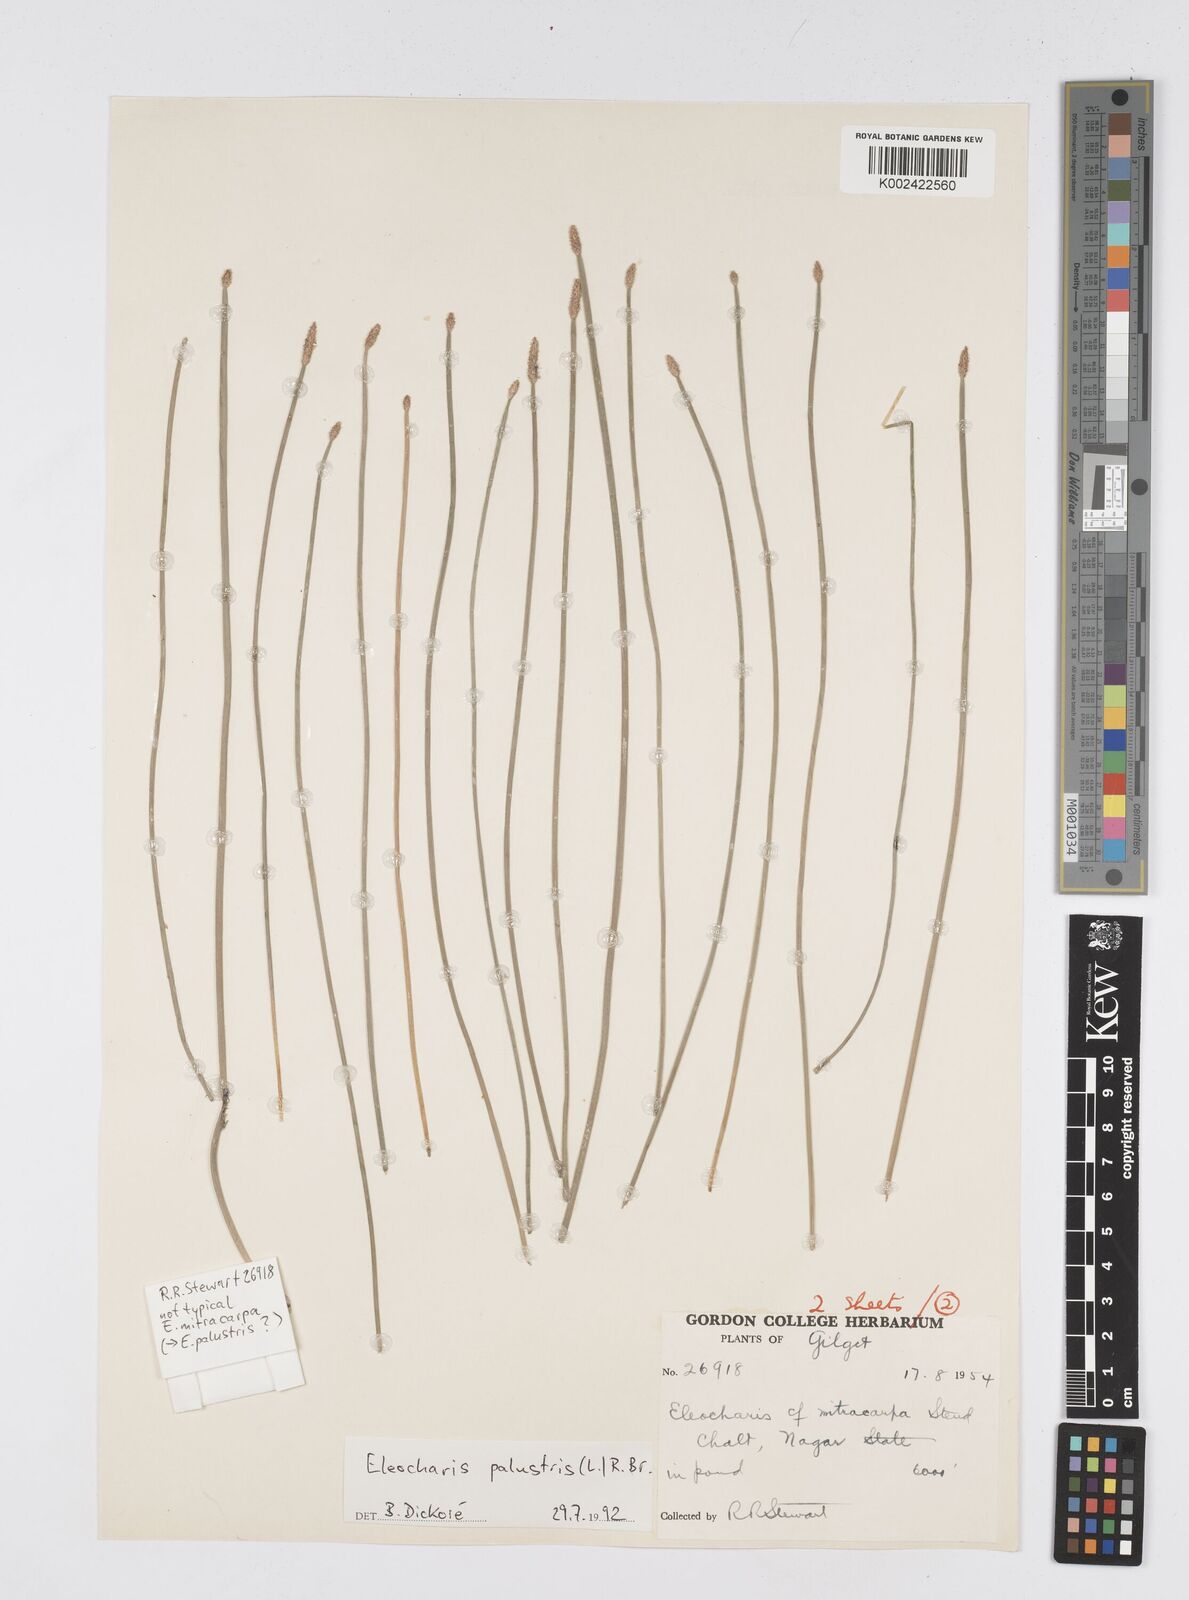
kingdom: Plantae
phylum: Tracheophyta
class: Liliopsida
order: Poales
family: Cyperaceae
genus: Eleocharis
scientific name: Eleocharis mitracarpa
